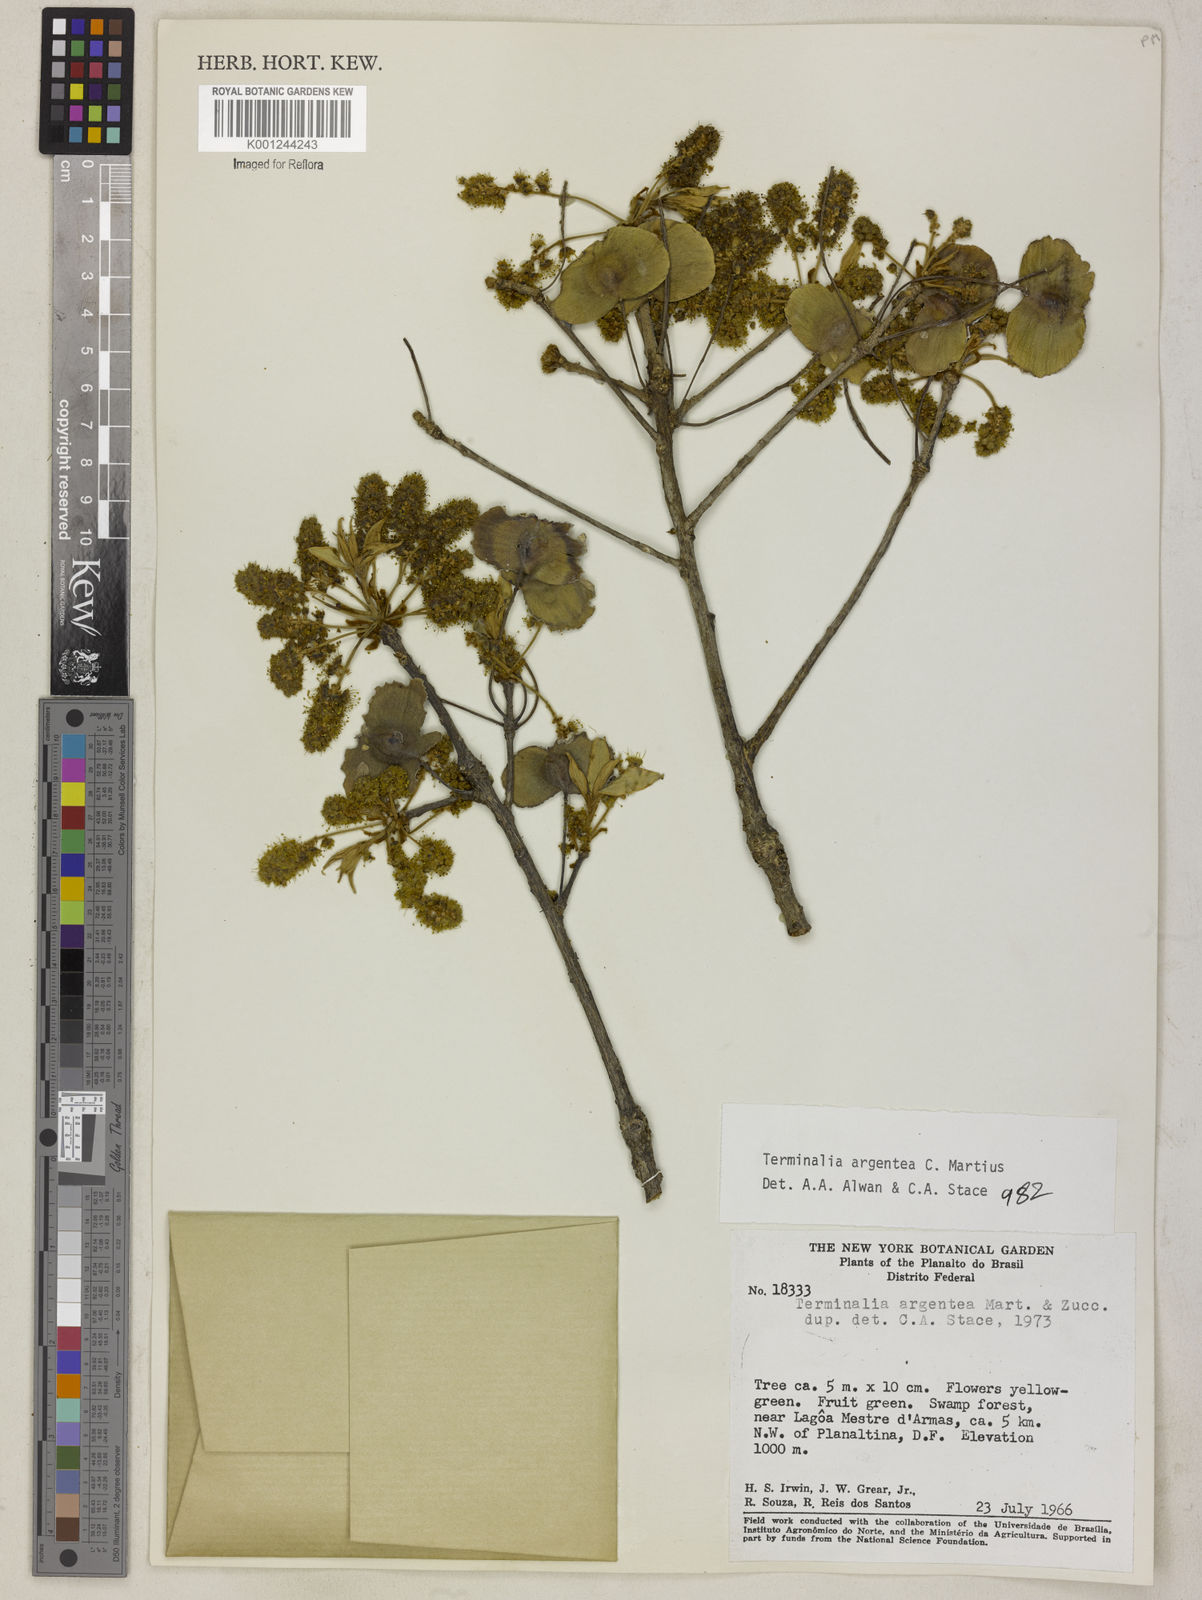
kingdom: Plantae
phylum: Tracheophyta
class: Magnoliopsida
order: Myrtales
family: Combretaceae
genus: Terminalia
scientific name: Terminalia argentea
